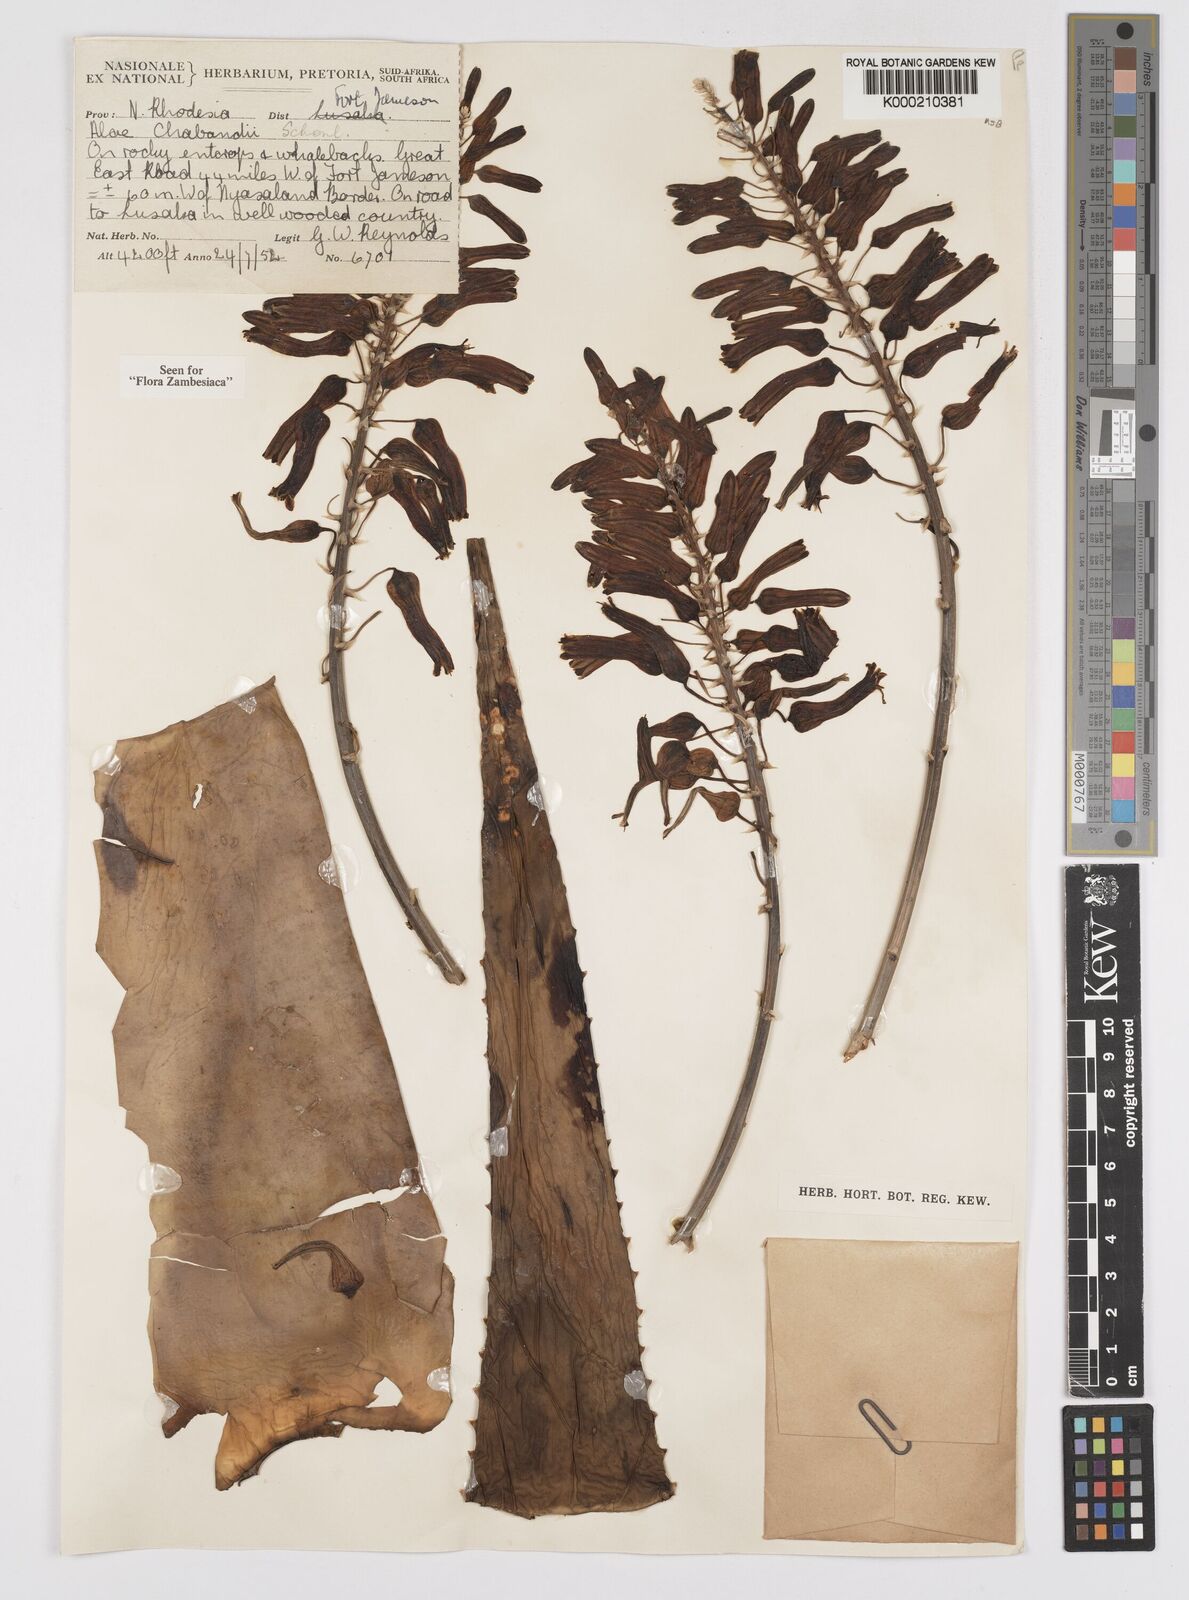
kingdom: Plantae
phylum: Tracheophyta
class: Liliopsida
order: Asparagales
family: Asphodelaceae
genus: Aloe
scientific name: Aloe chabaudii
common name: Chabaud's aloe
